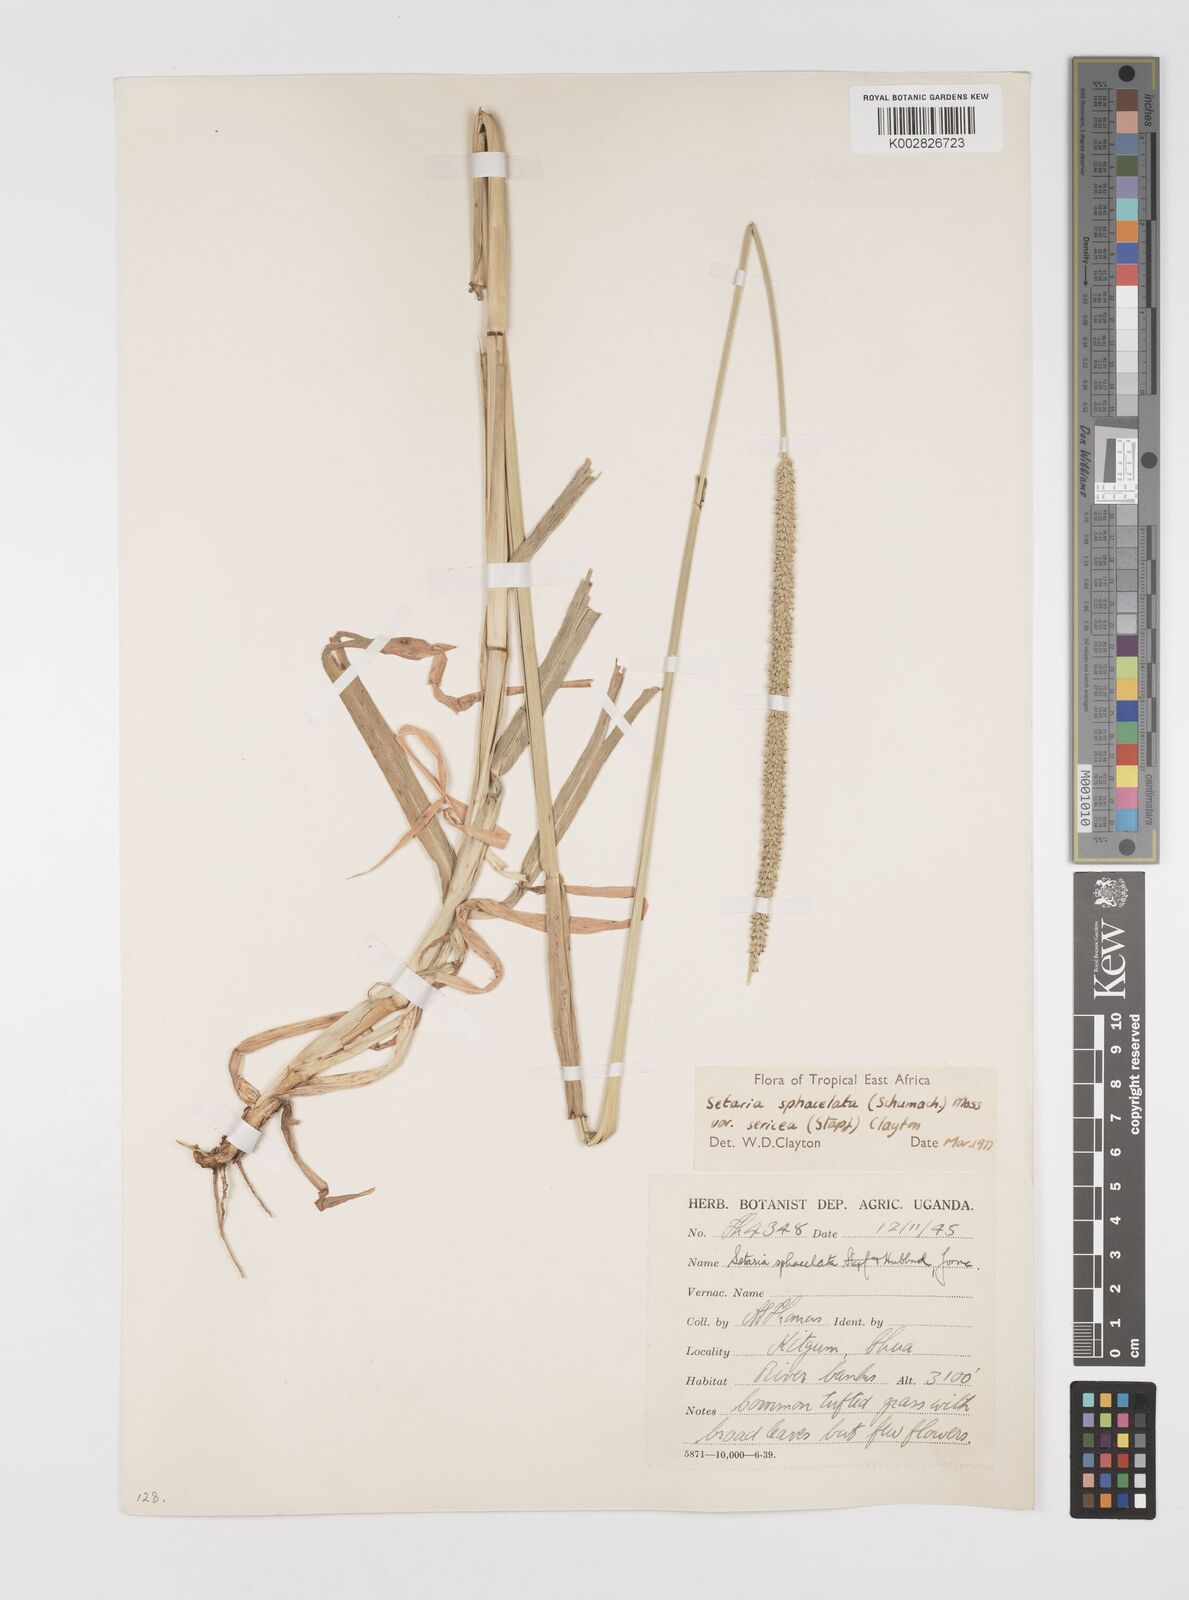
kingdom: Plantae
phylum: Tracheophyta
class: Liliopsida
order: Poales
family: Poaceae
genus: Setaria
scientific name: Setaria sphacelata
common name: African bristlegrass
